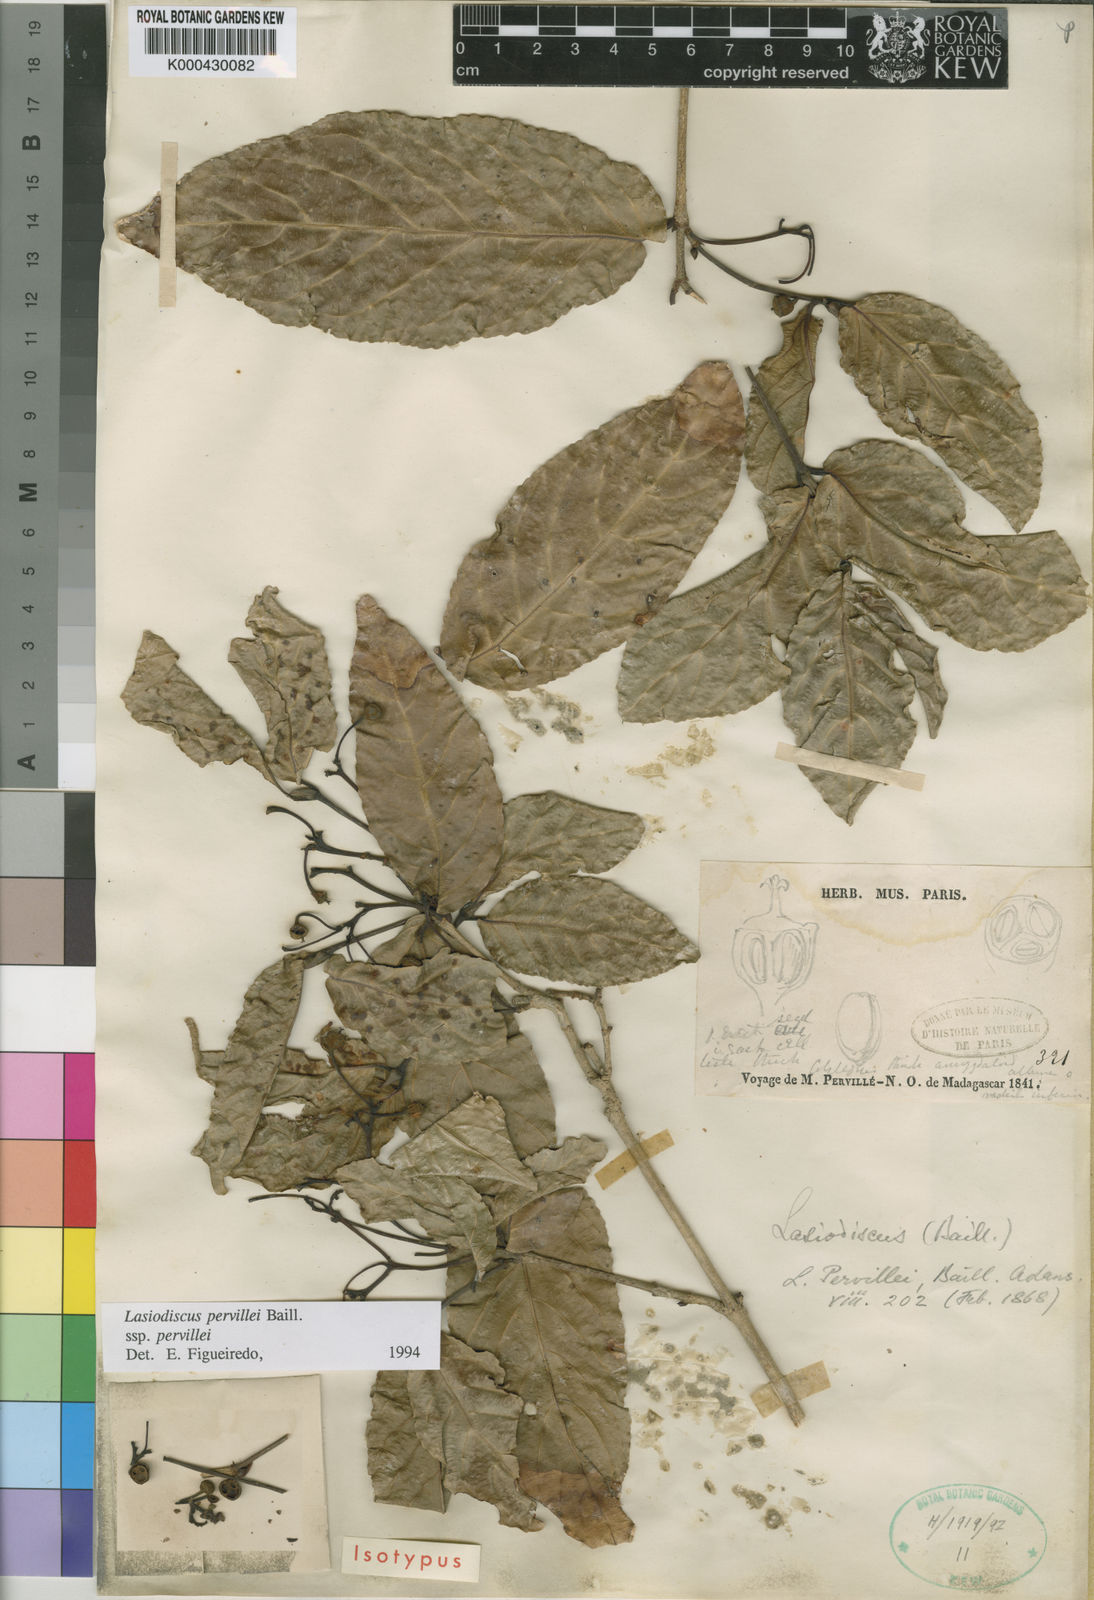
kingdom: Plantae
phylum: Tracheophyta
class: Magnoliopsida
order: Rosales
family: Rhamnaceae
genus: Lasiodiscus
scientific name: Lasiodiscus pervillei
